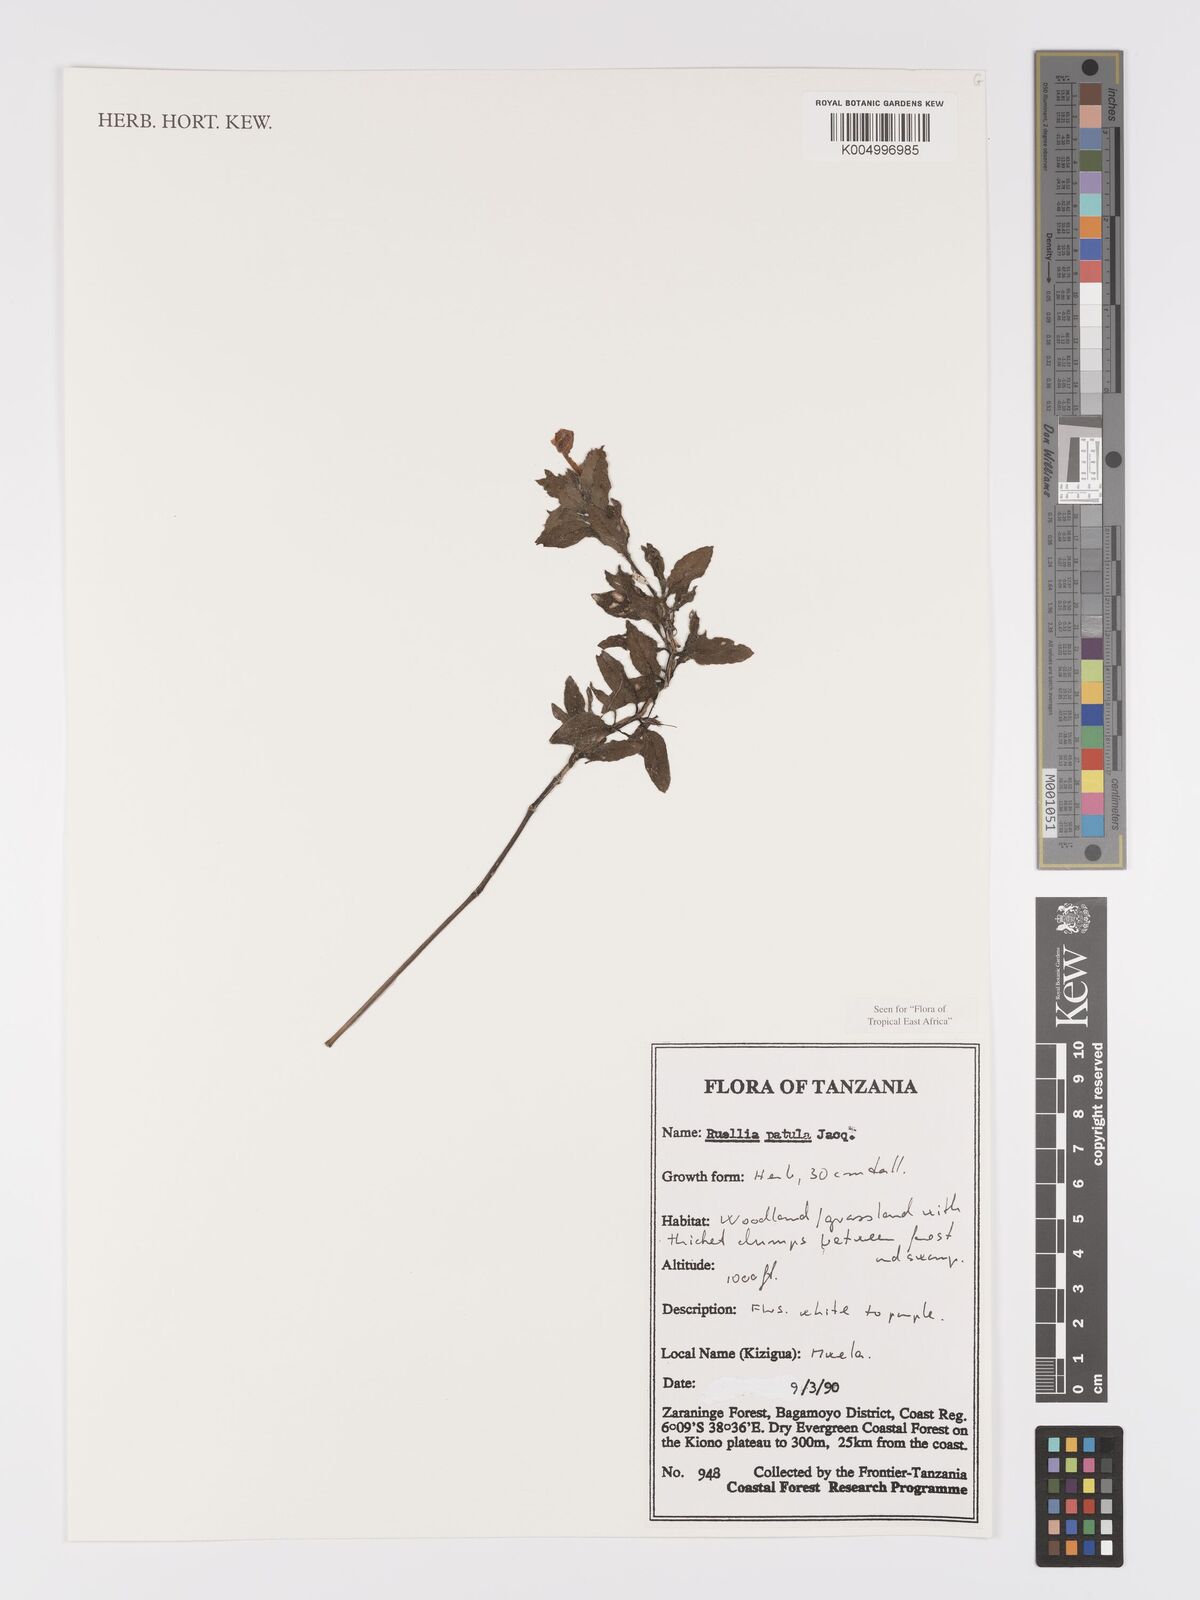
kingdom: Plantae
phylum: Tracheophyta
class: Magnoliopsida
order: Lamiales
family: Acanthaceae
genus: Ruellia
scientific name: Ruellia patula
